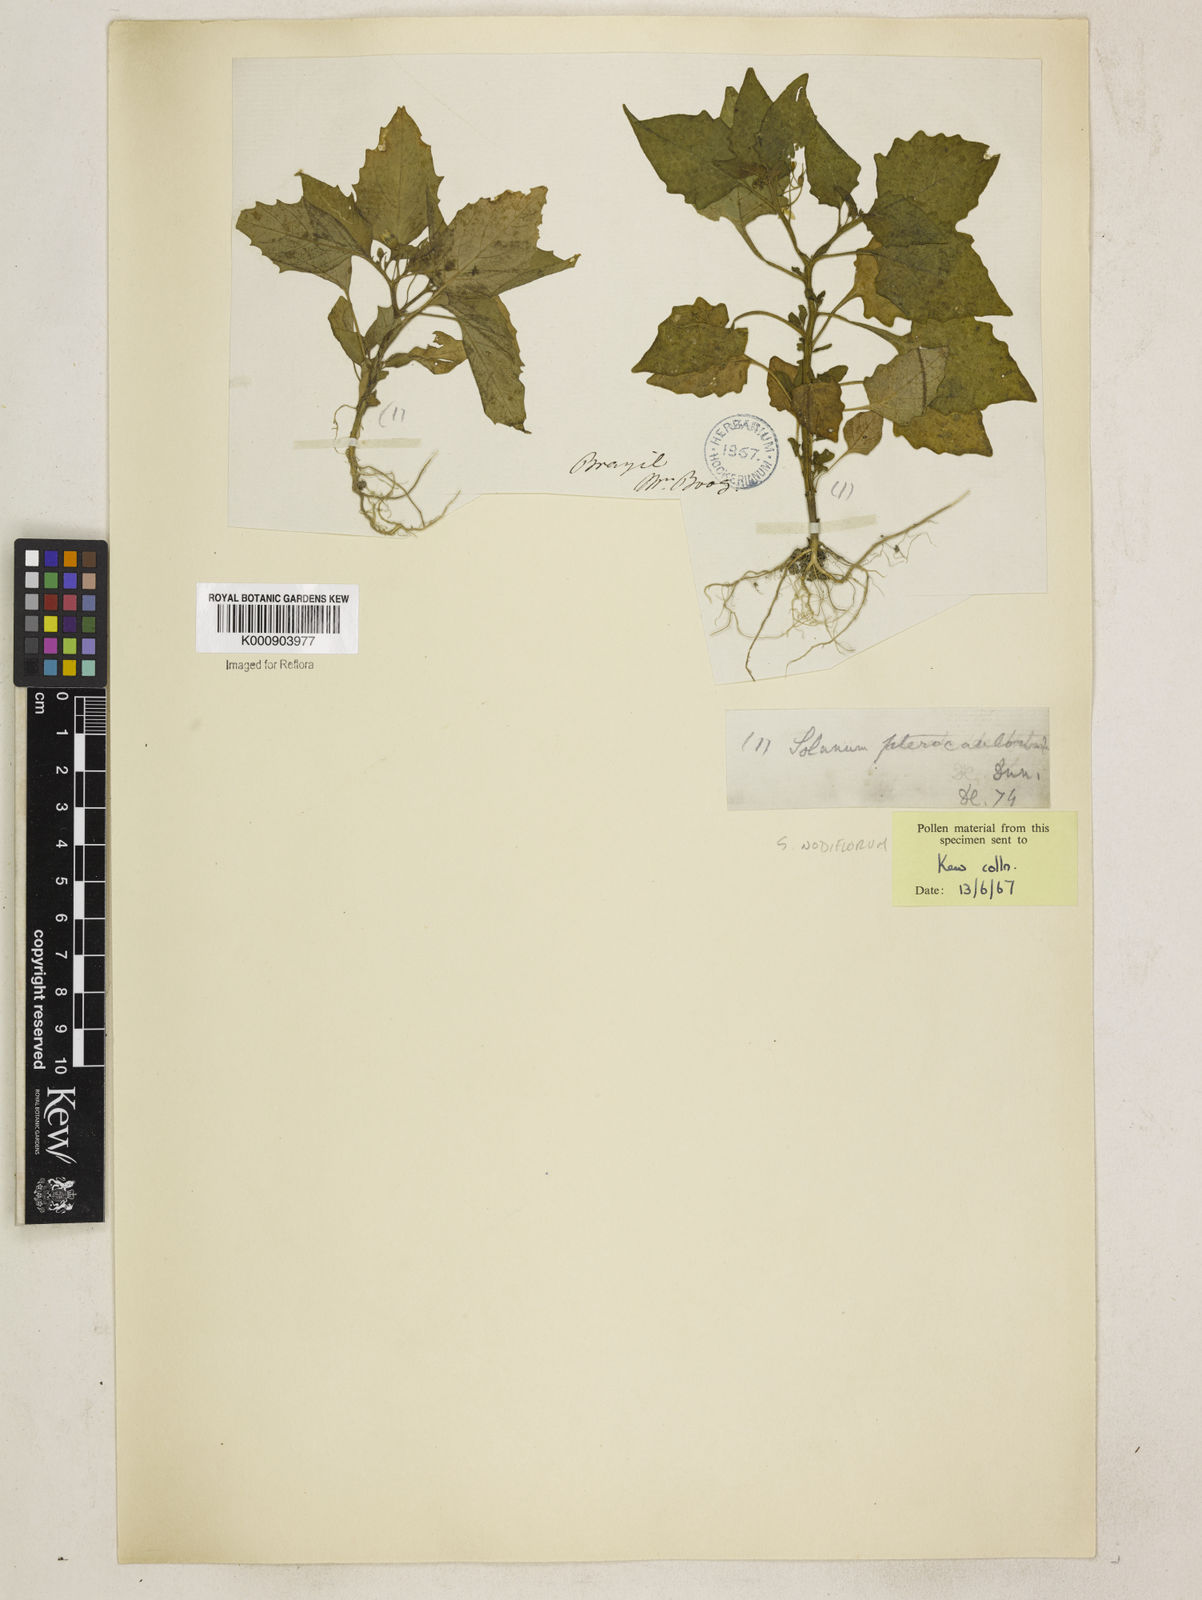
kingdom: Plantae
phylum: Tracheophyta
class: Magnoliopsida
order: Solanales
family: Solanaceae
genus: Solanum
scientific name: Solanum nigrum
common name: Black nightshade
